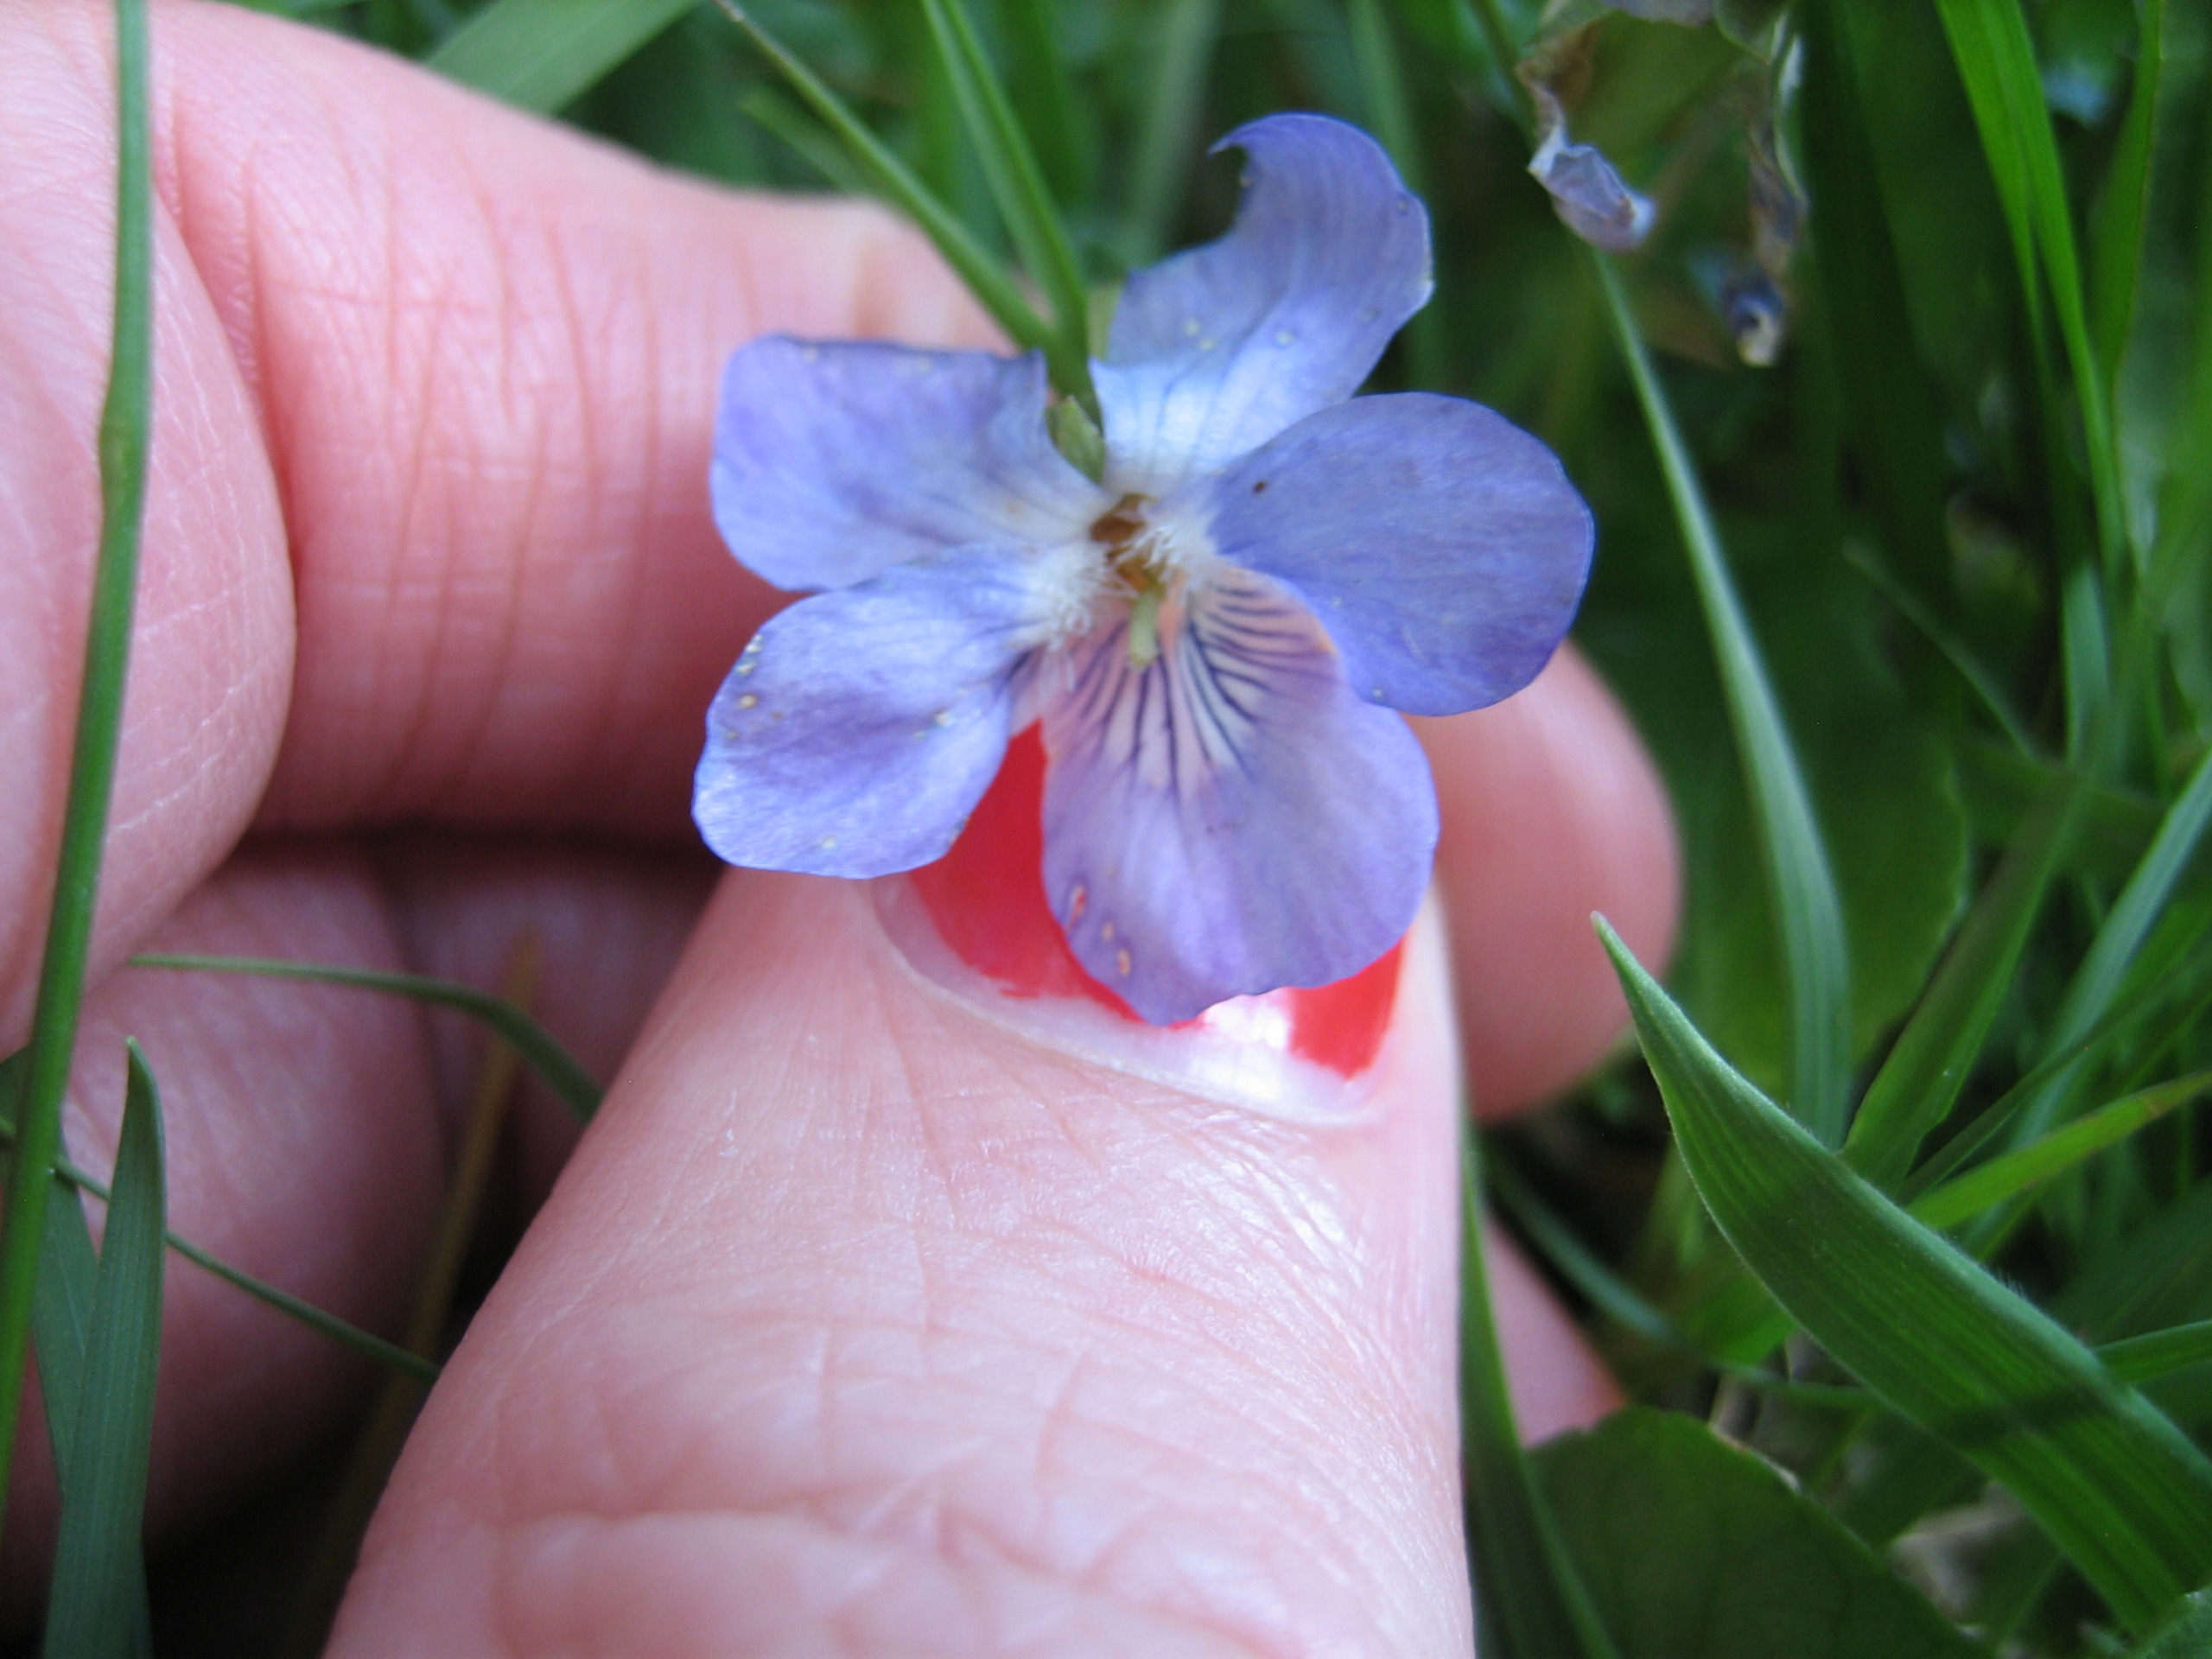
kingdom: Plantae
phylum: Tracheophyta
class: Magnoliopsida
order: Malpighiales
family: Violaceae
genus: Viola
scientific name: Viola riviniana
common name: Krat-viol
